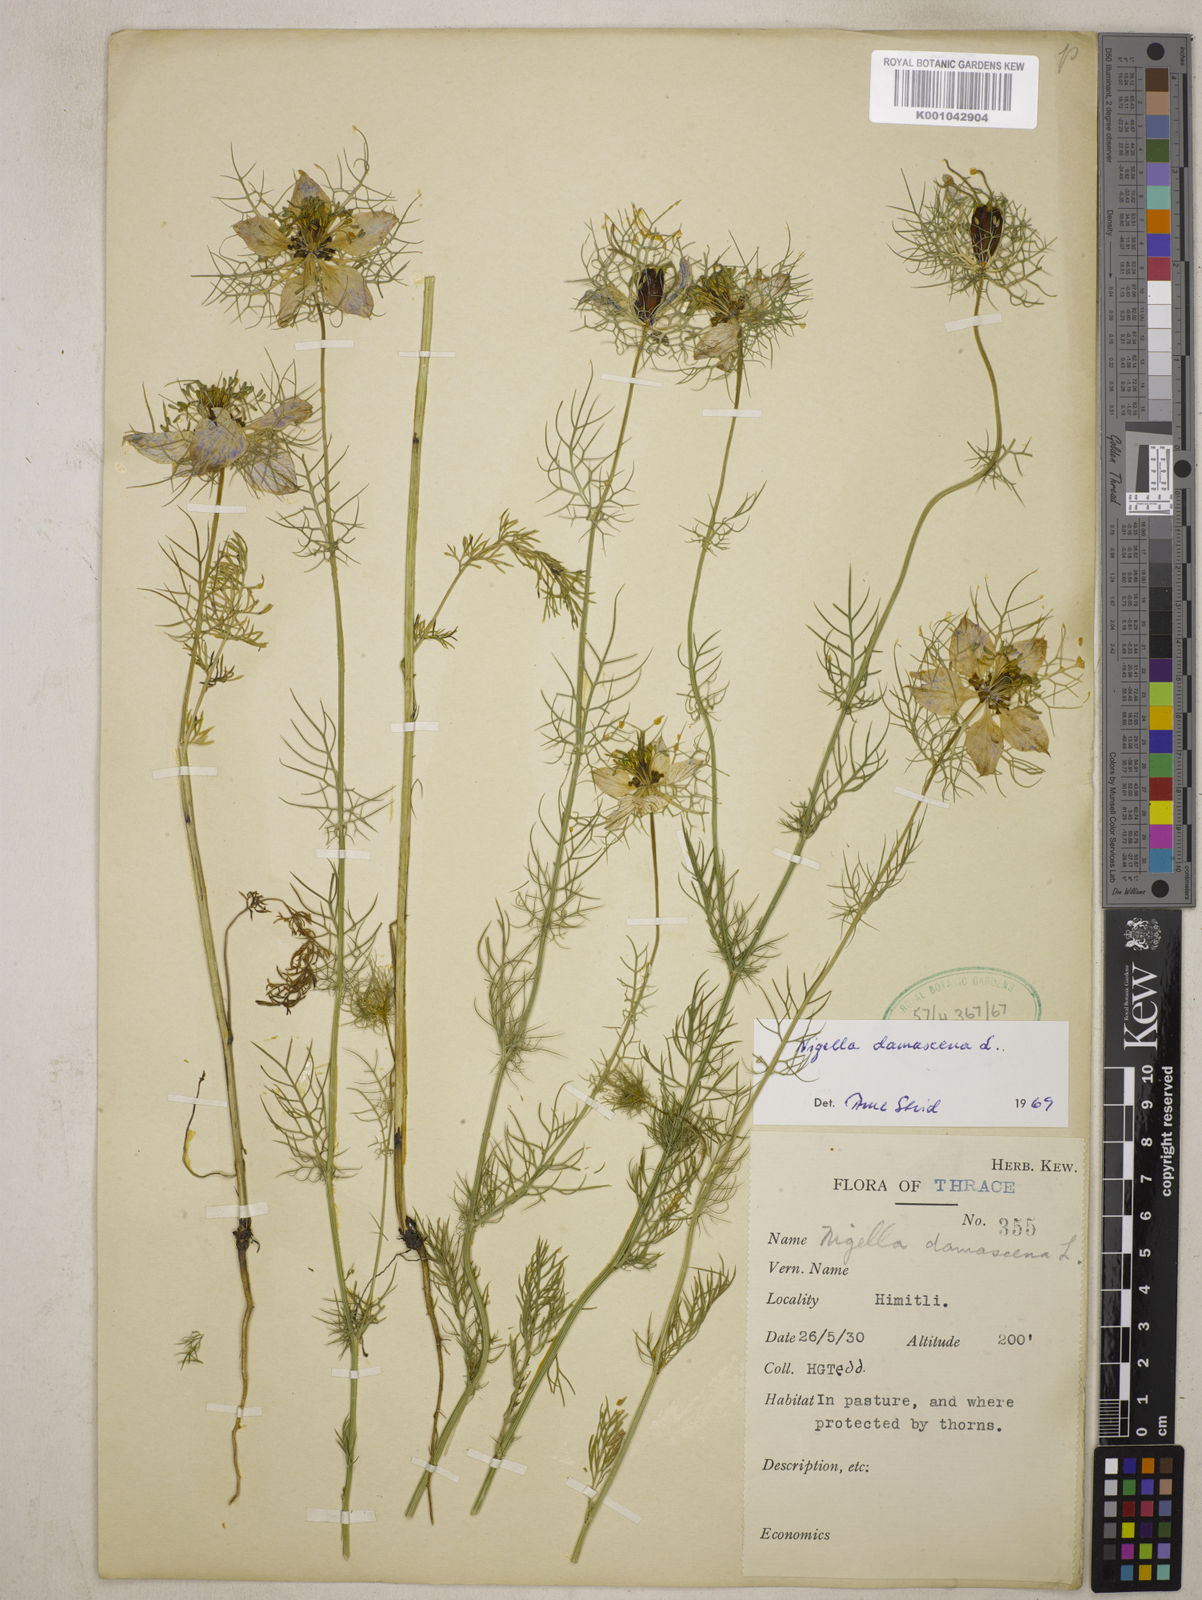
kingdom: Plantae
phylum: Tracheophyta
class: Magnoliopsida
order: Ranunculales
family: Ranunculaceae
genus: Nigella
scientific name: Nigella damascena
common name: Love-in-a-mist
